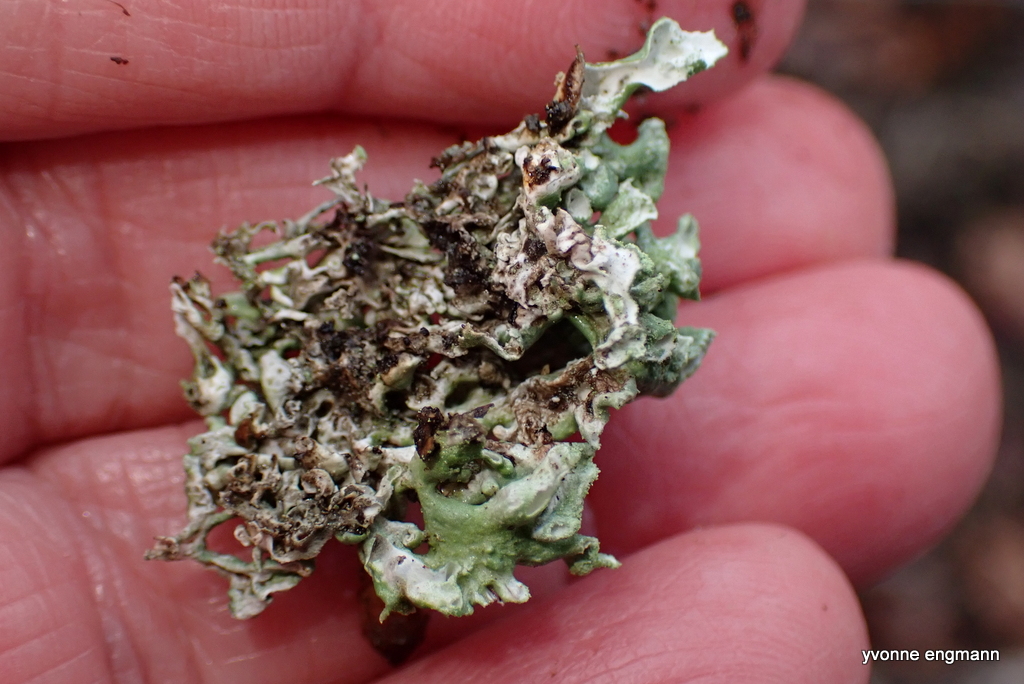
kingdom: Fungi
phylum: Ascomycota
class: Lecanoromycetes
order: Lecanorales
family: Parmeliaceae
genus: Hypogymnia
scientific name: Hypogymnia physodes
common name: almindelig kvistlav
